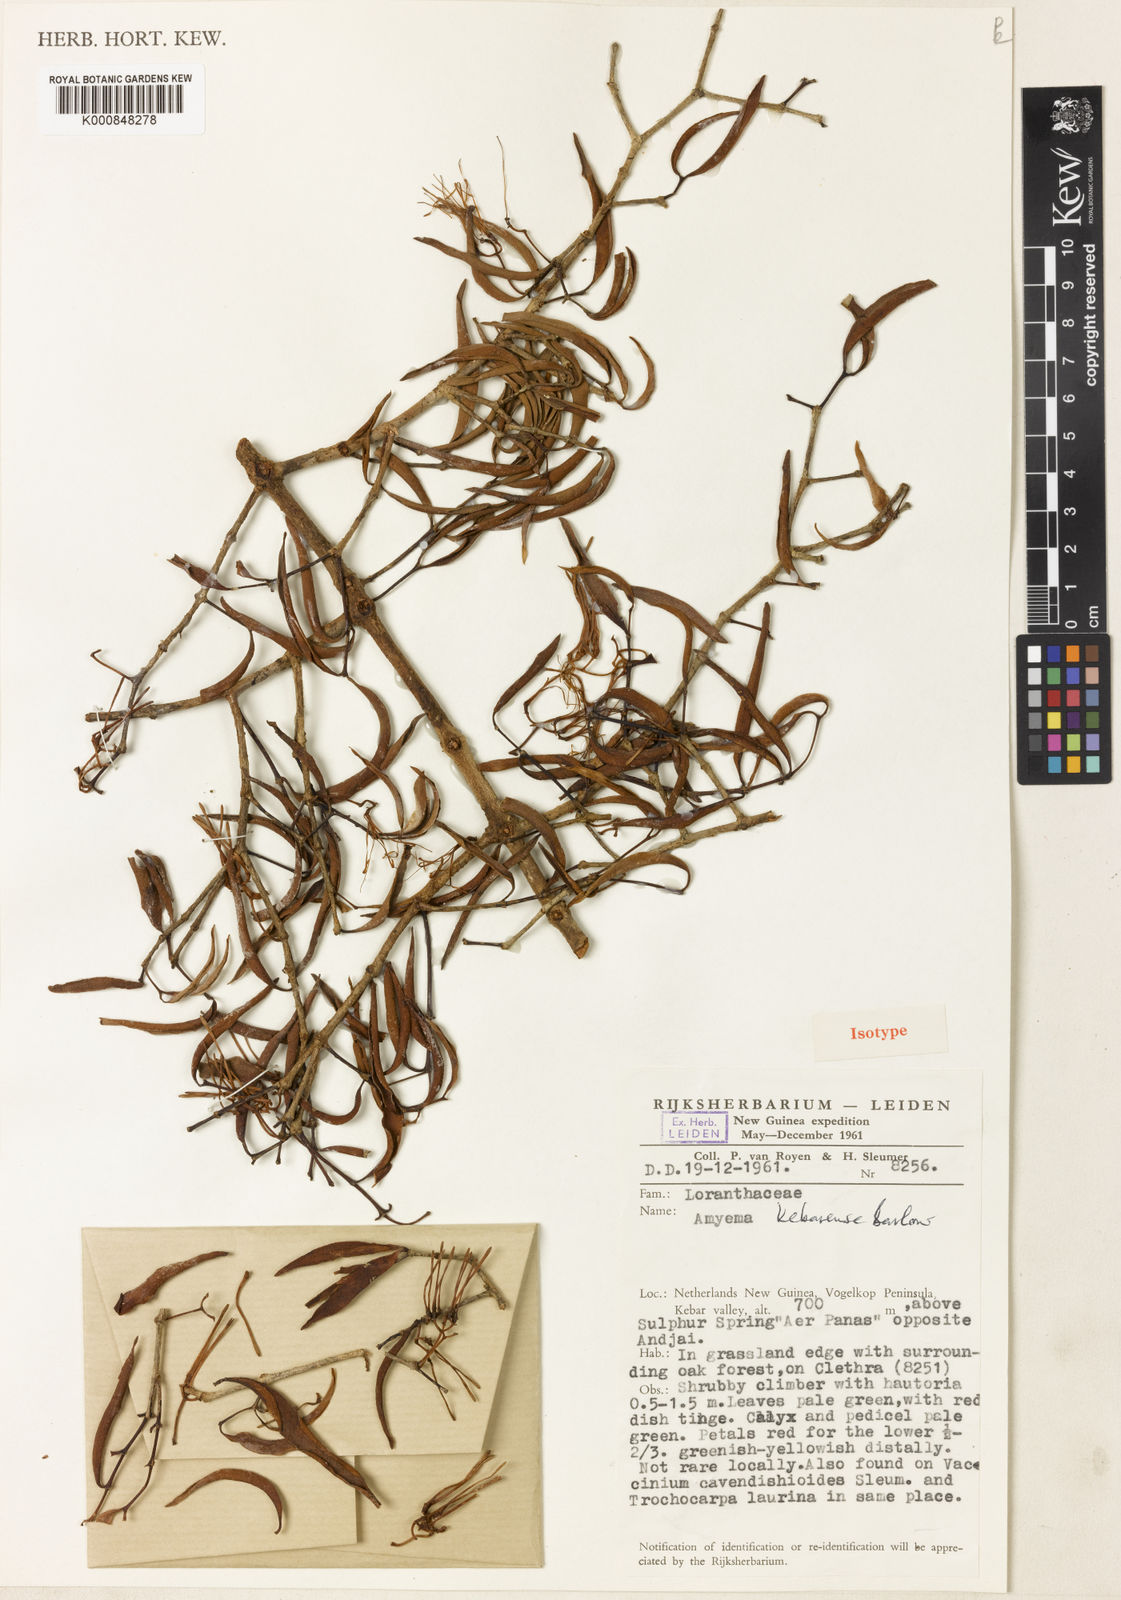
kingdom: Plantae
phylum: Tracheophyta
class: Magnoliopsida
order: Santalales
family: Loranthaceae
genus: Amyema
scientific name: Amyema kebarensis
